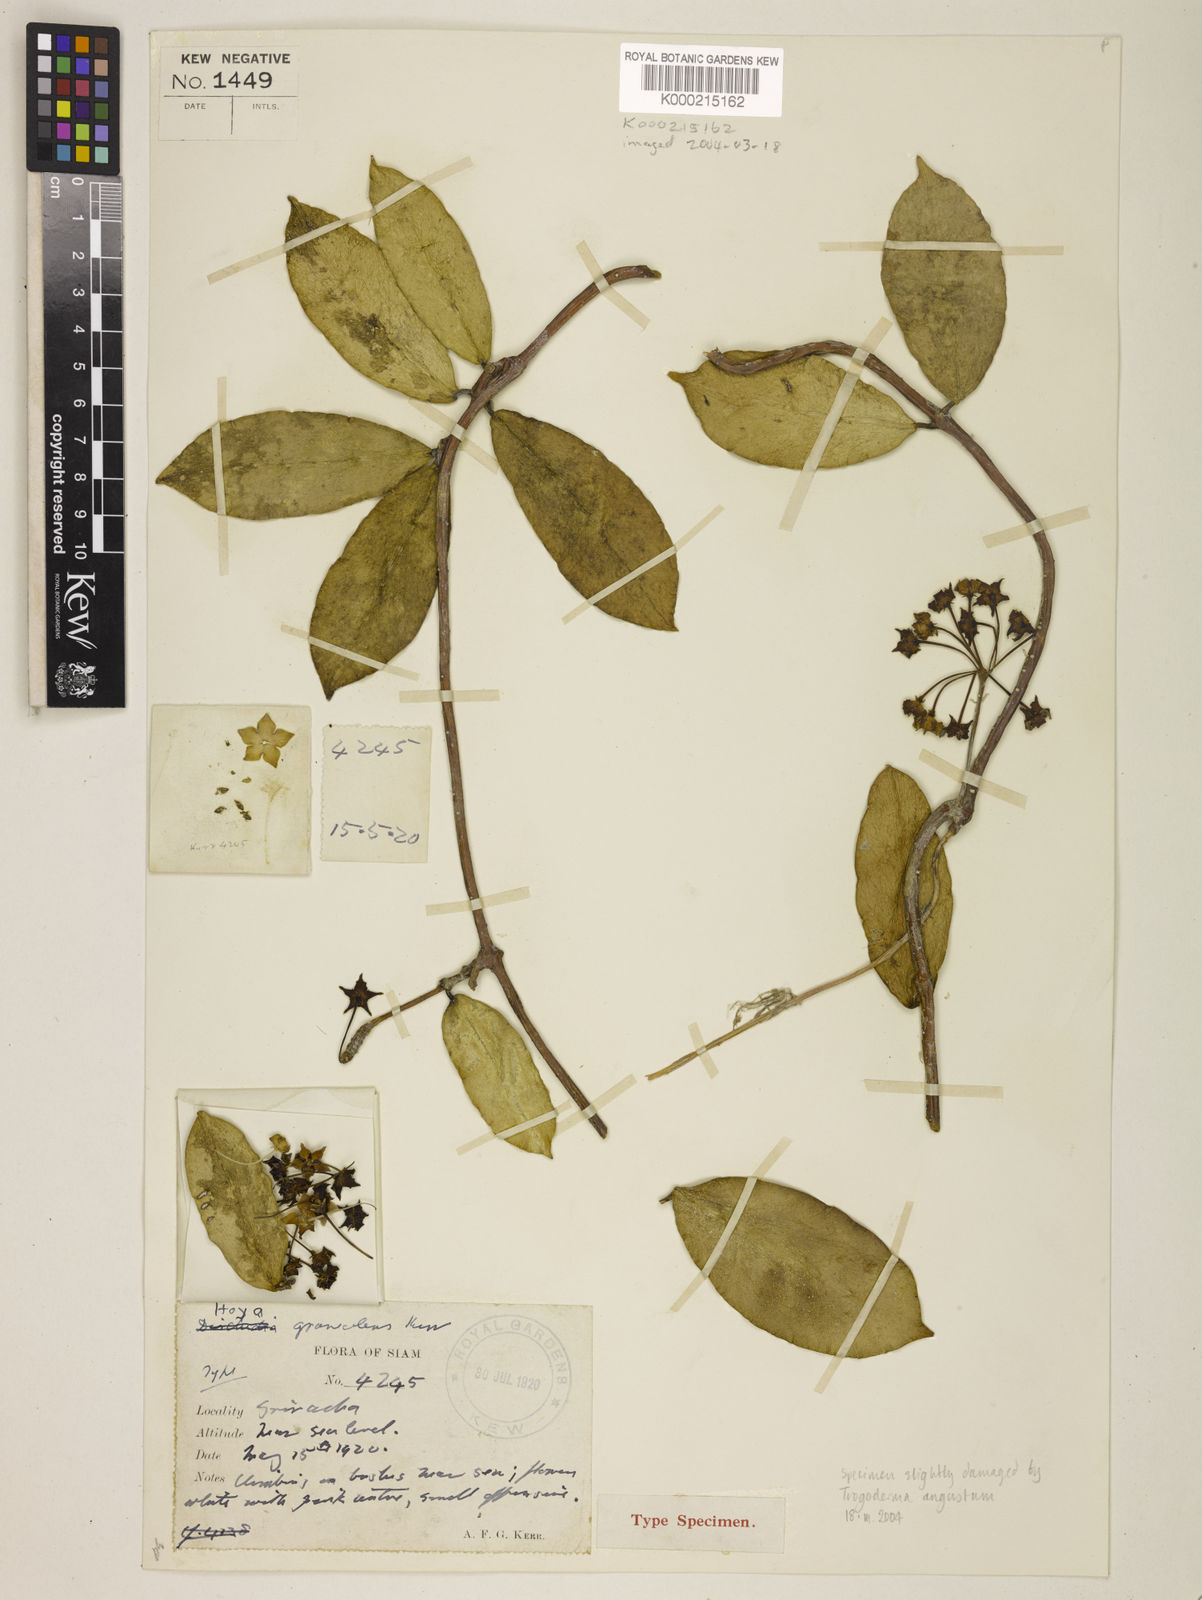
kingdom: Plantae
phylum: Tracheophyta
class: Magnoliopsida
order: Gentianales
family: Apocynaceae
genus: Hoya
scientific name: Hoya oblongacutifolia
